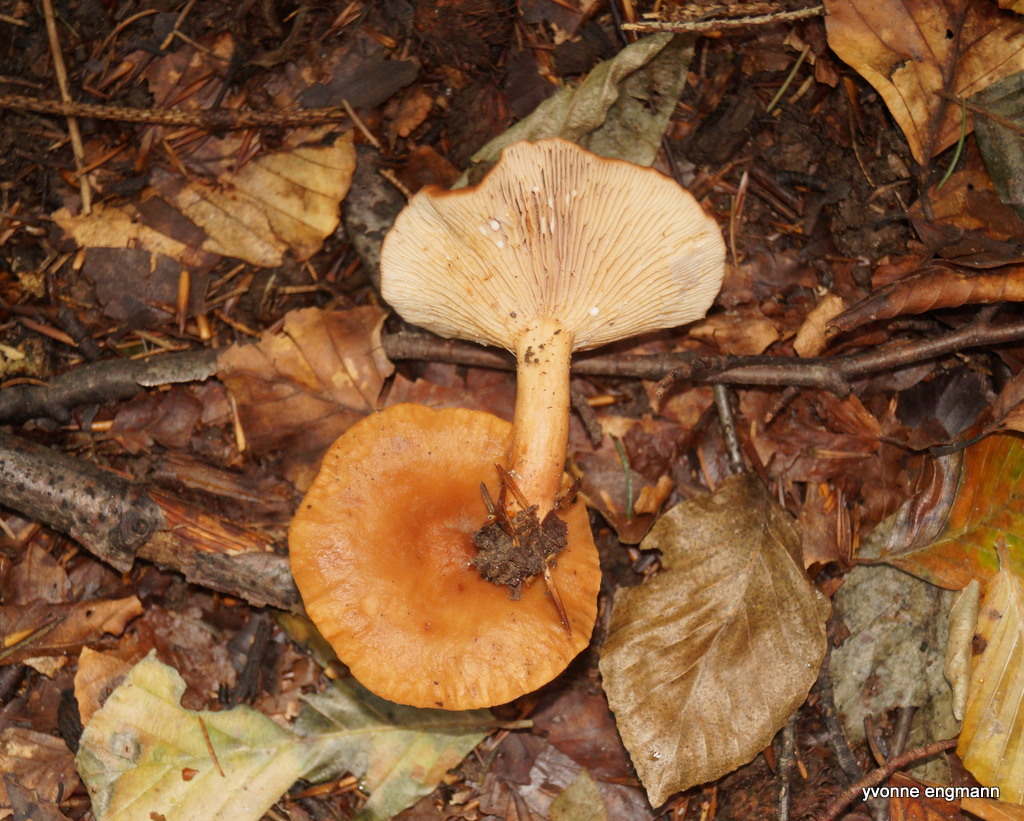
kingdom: Fungi
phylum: Basidiomycota
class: Agaricomycetes
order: Russulales
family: Russulaceae
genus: Lactarius
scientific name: Lactarius subdulcis
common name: sødlig mælkehat
